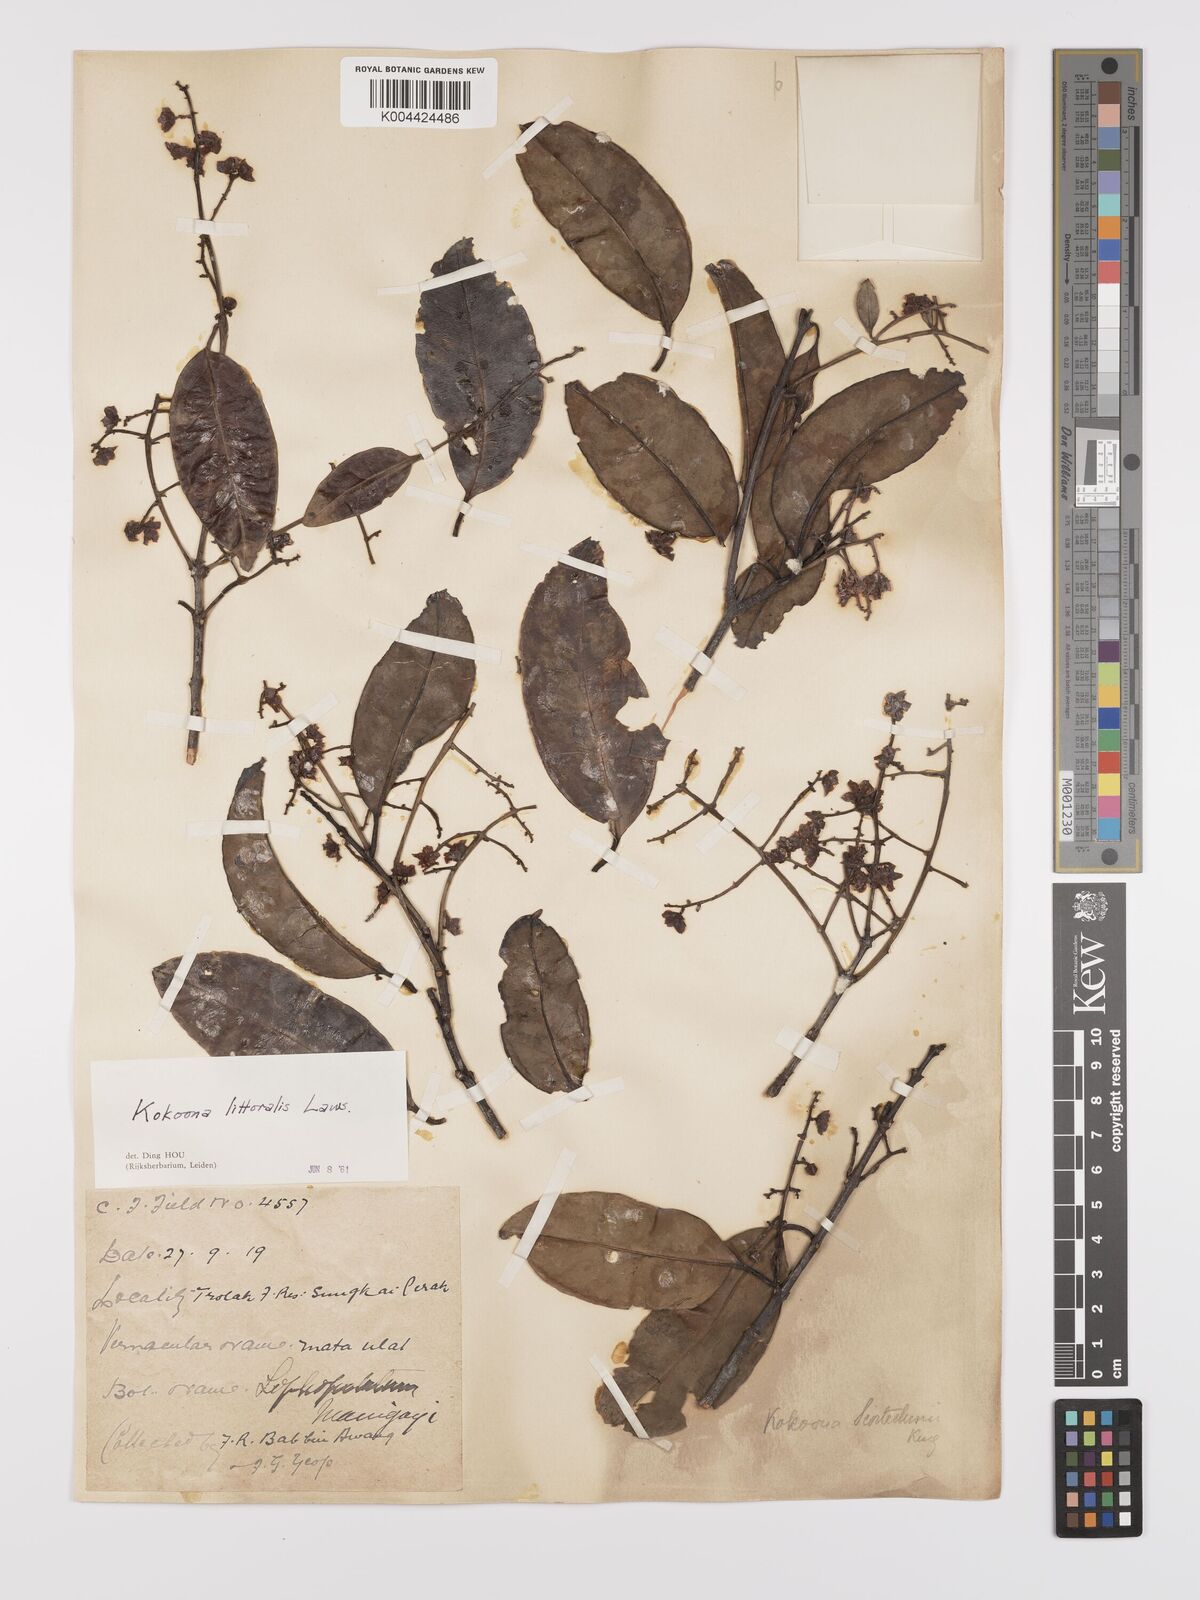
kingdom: Plantae
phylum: Tracheophyta
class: Magnoliopsida
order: Celastrales
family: Celastraceae
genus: Kokoona
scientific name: Kokoona littoralis
